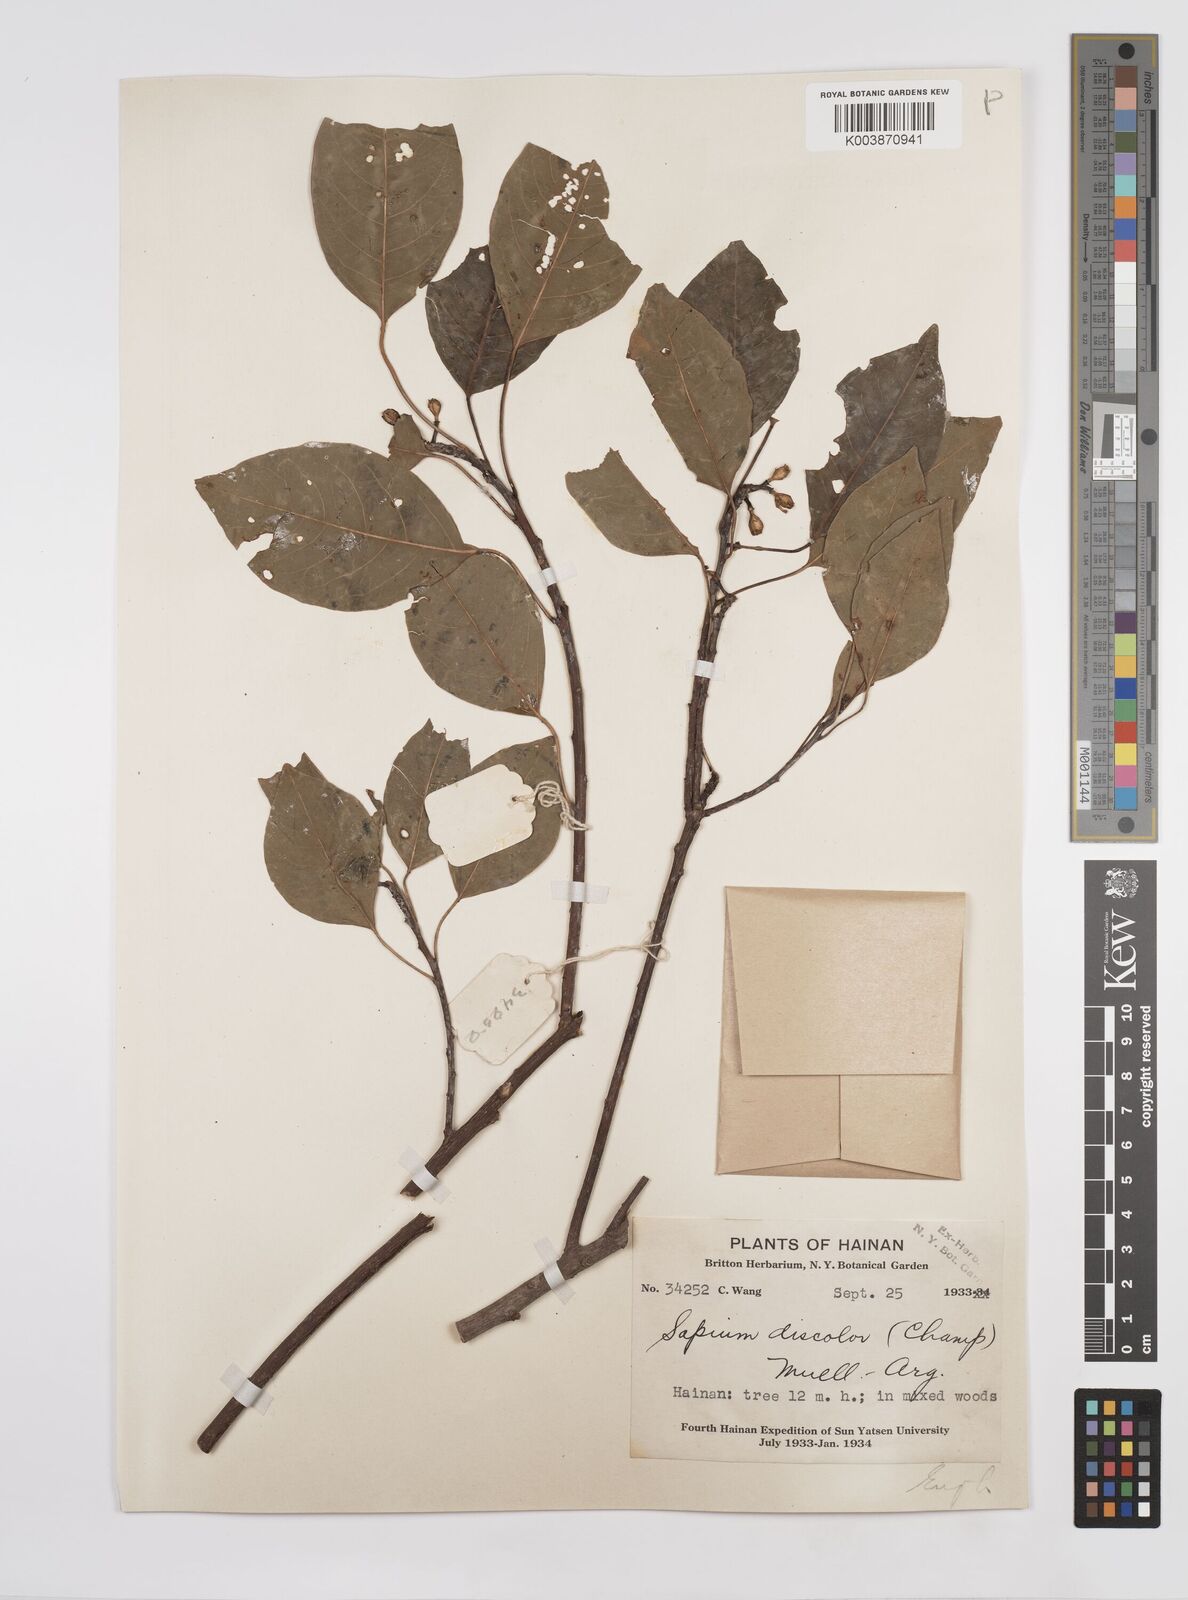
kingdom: Plantae
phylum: Tracheophyta
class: Magnoliopsida
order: Malpighiales
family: Euphorbiaceae
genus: Triadica
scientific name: Triadica cochinchinensis
